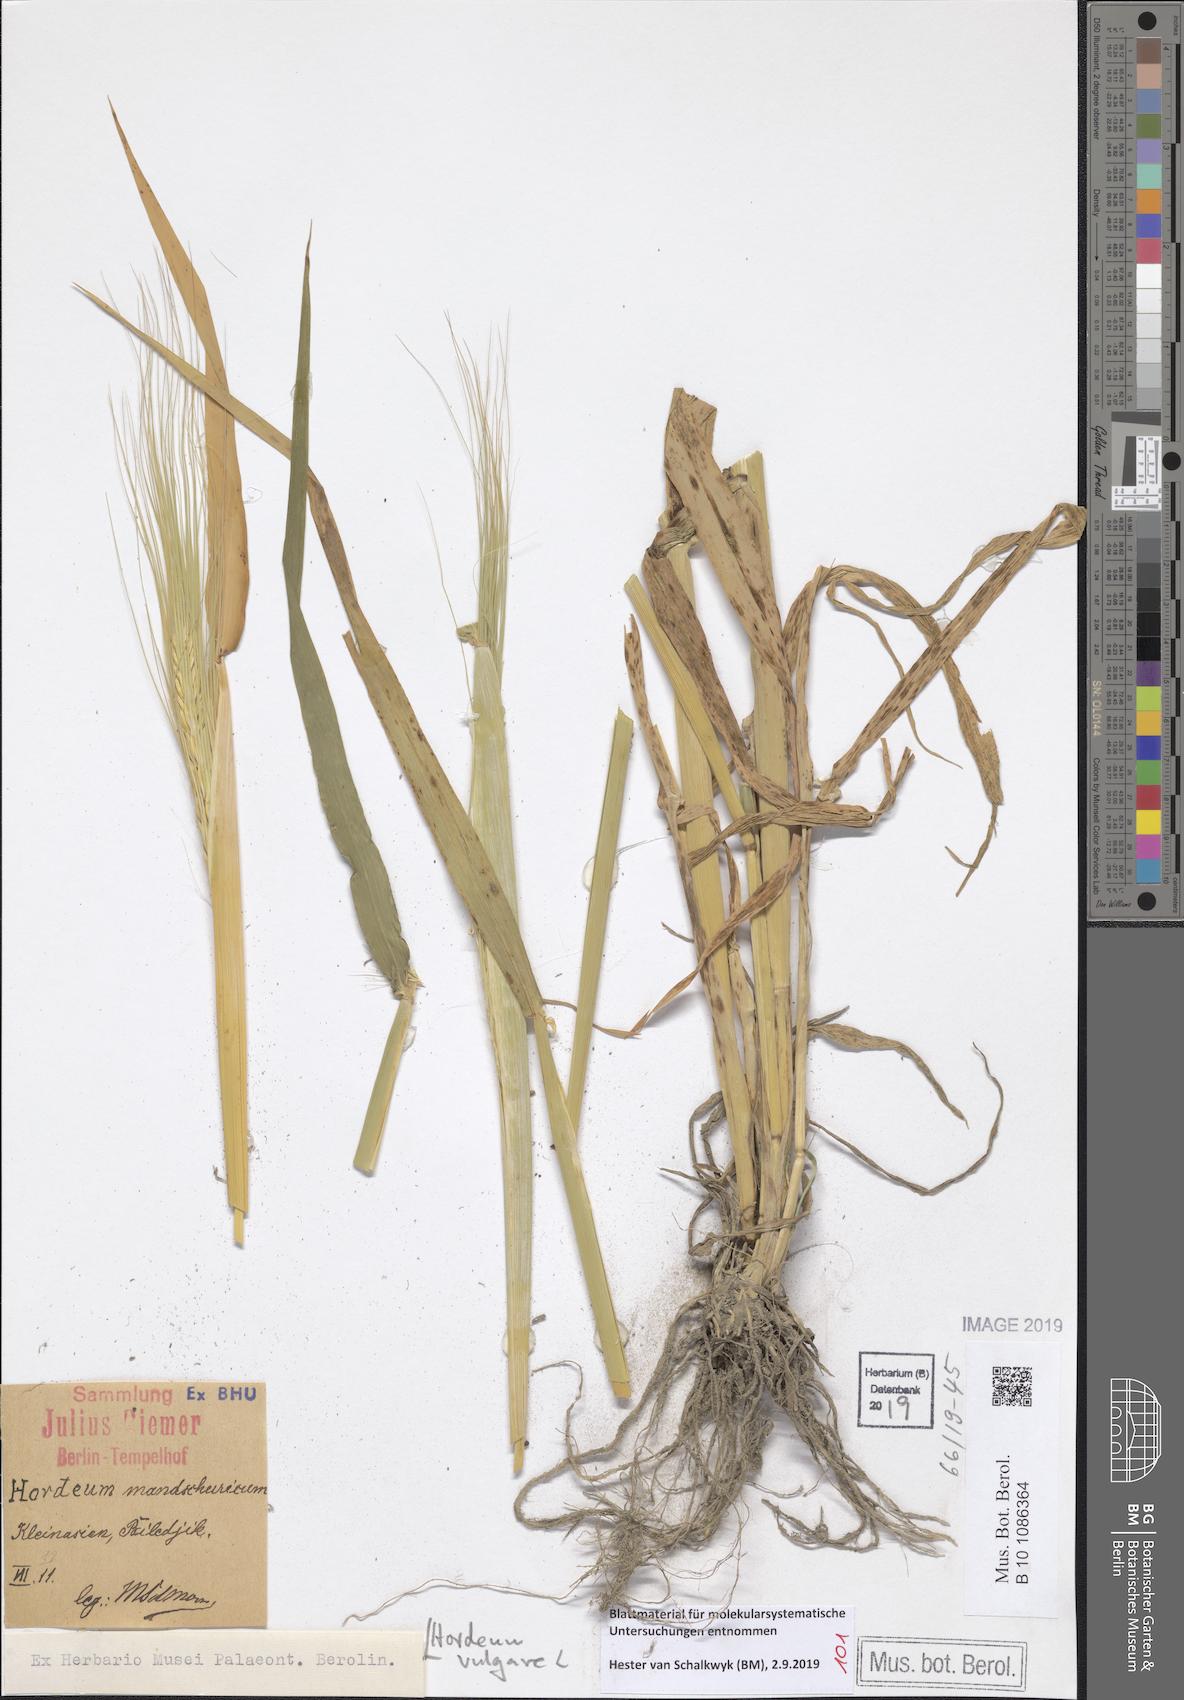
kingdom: Plantae
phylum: Tracheophyta
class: Liliopsida
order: Poales
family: Poaceae
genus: Hordeum
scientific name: Hordeum vulgare
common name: Common barley
